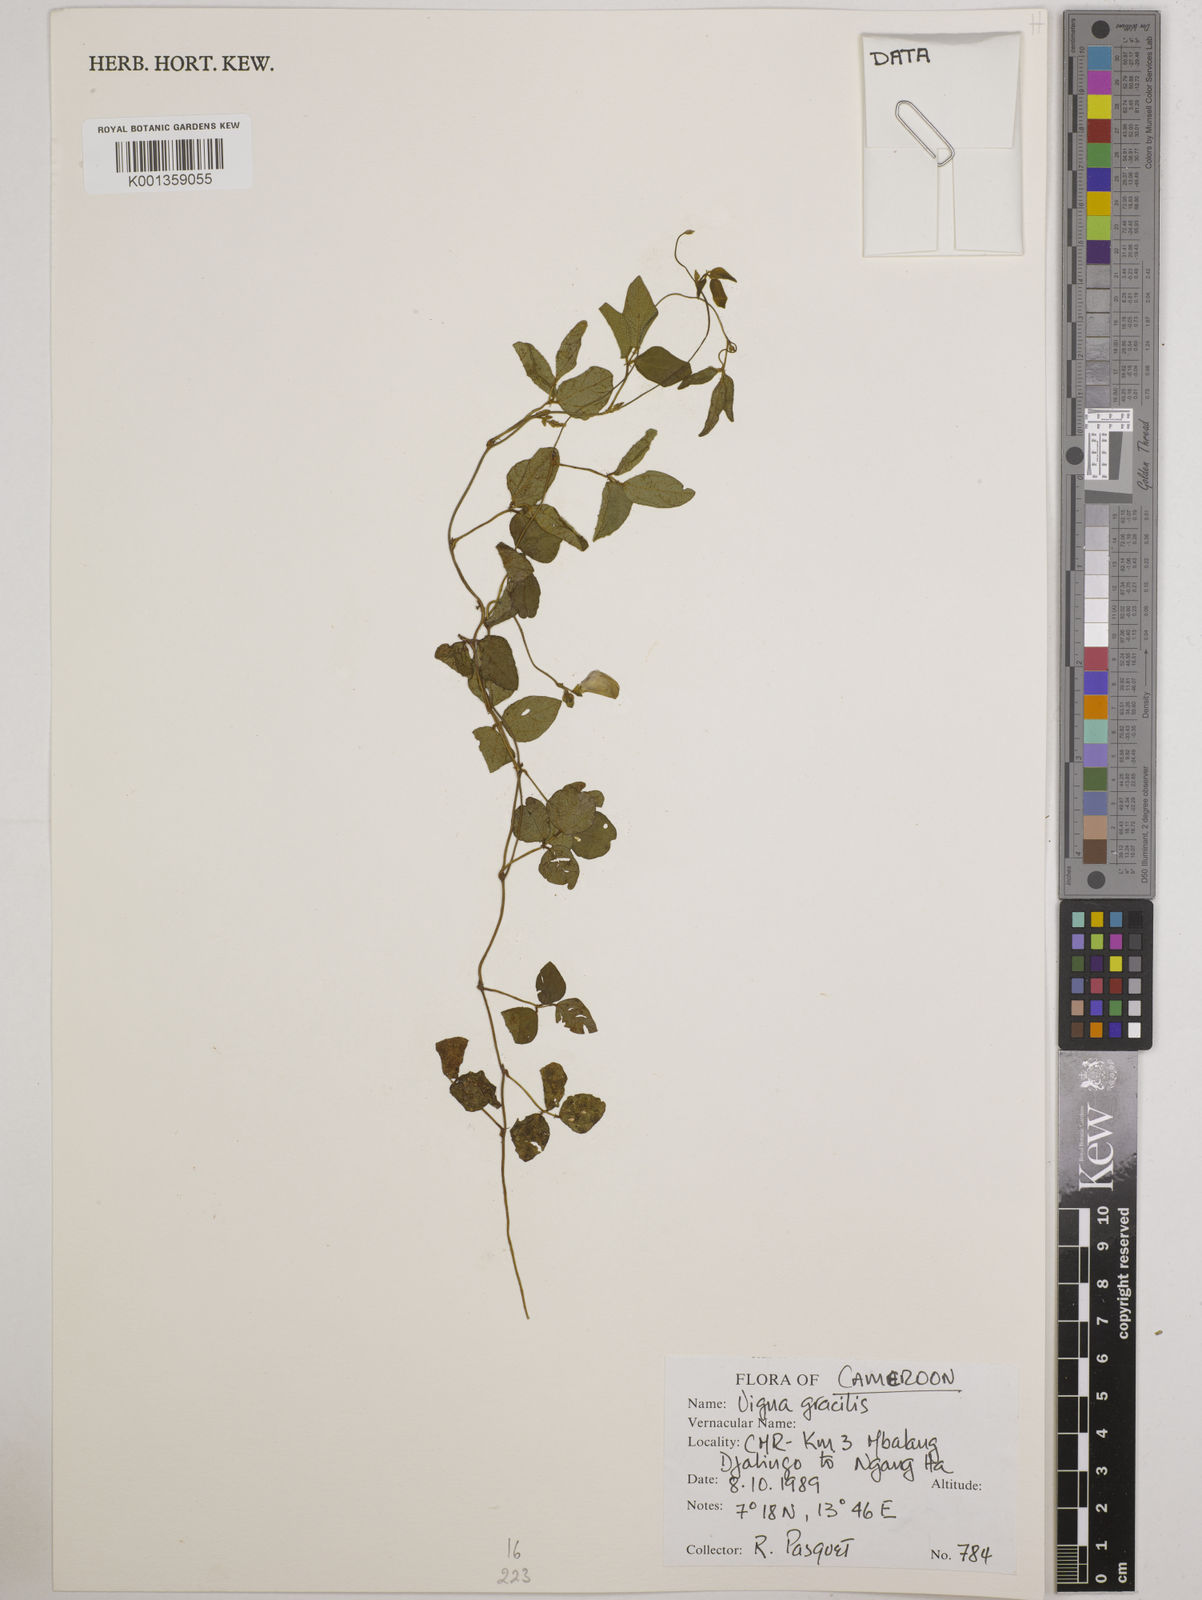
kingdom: Plantae
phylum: Tracheophyta
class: Magnoliopsida
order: Fabales
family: Fabaceae
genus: Vigna
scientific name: Vigna gracilis
